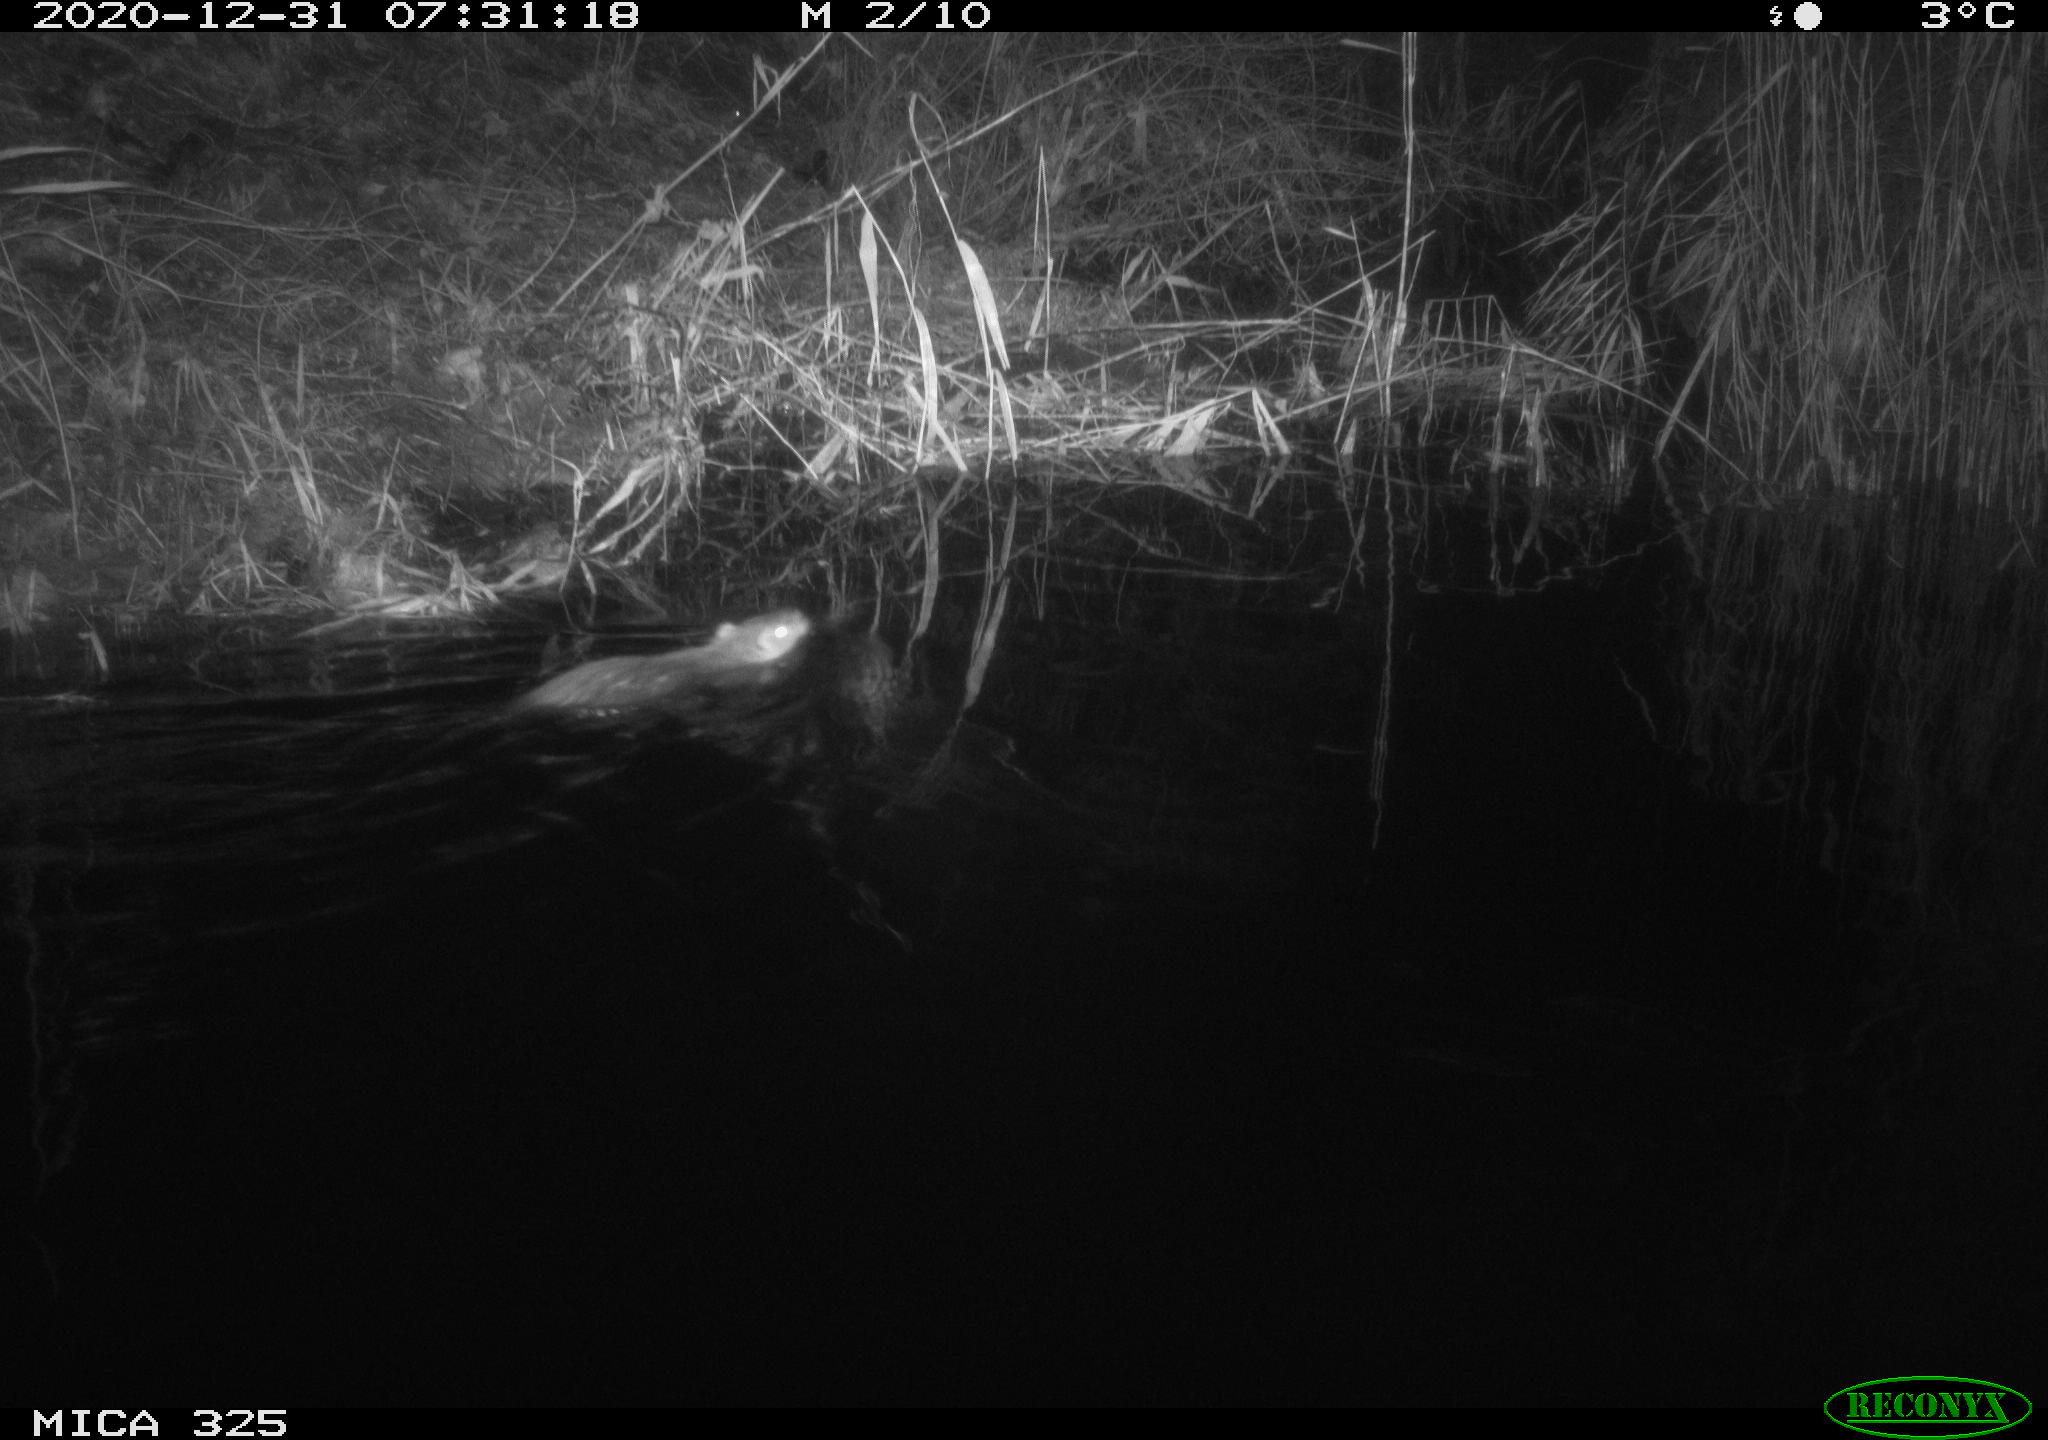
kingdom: Animalia
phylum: Chordata
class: Mammalia
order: Rodentia
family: Cricetidae
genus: Ondatra
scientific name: Ondatra zibethicus
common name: Muskrat
